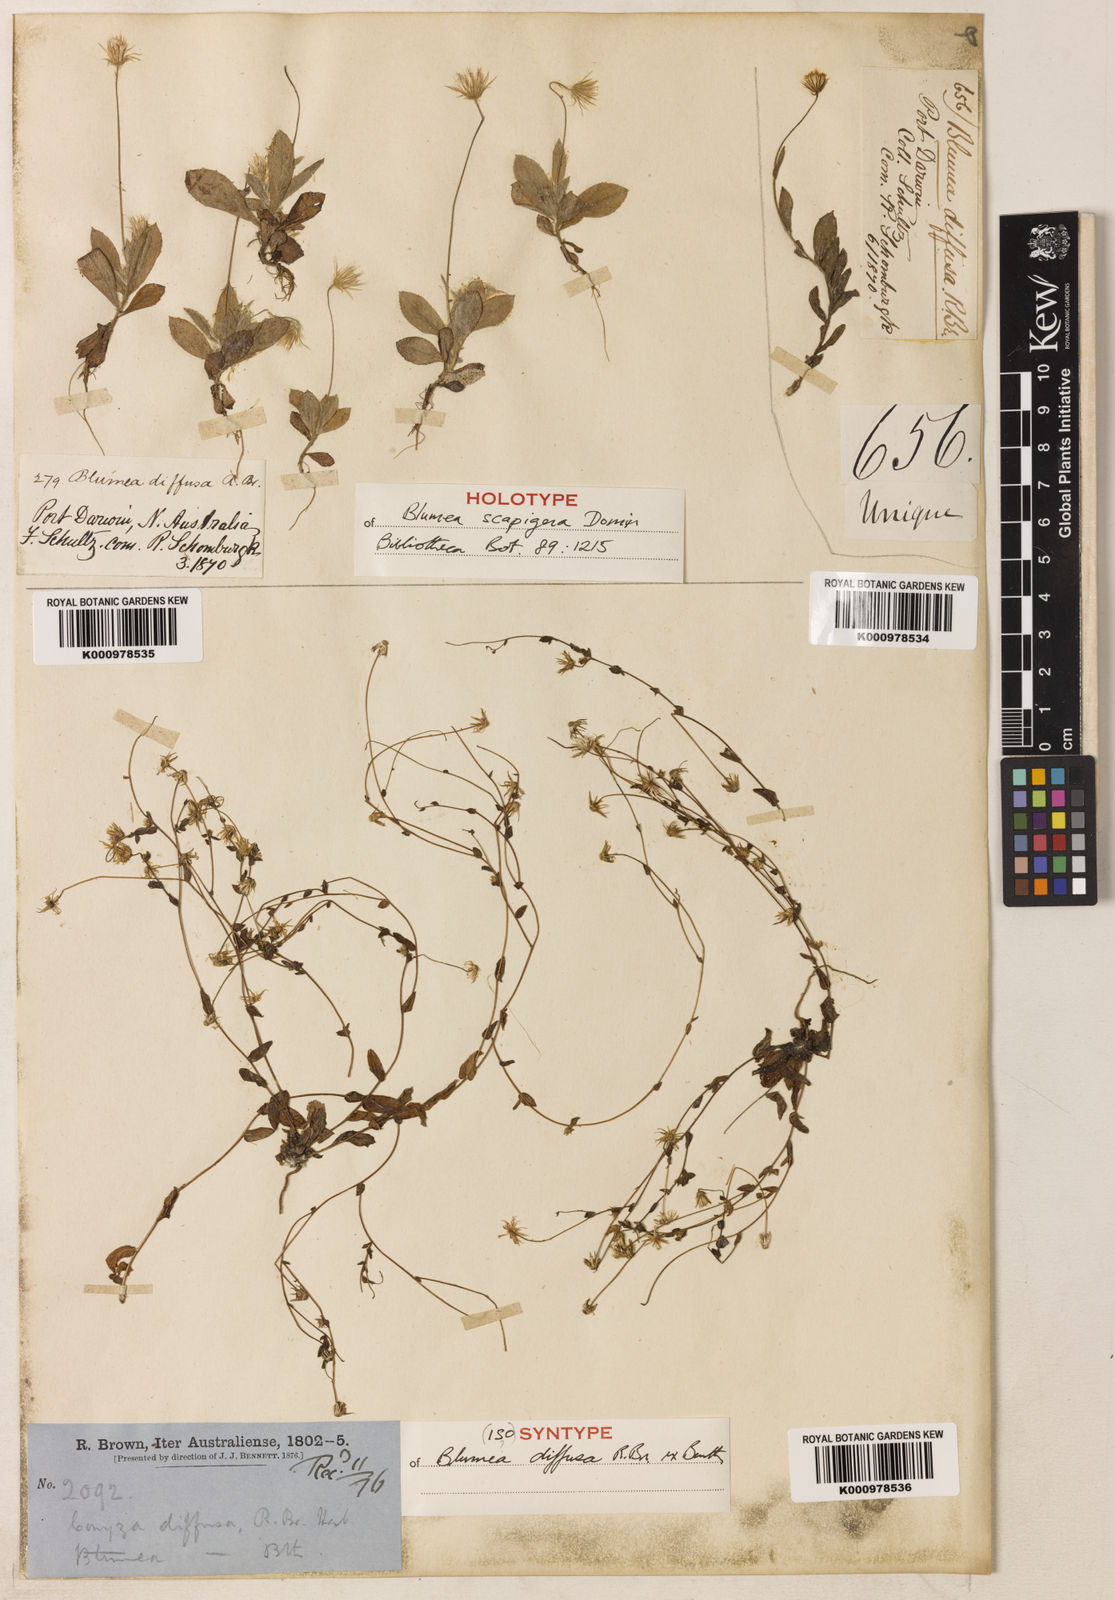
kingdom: Plantae
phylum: Tracheophyta
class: Magnoliopsida
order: Asterales
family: Asteraceae
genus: Blumea
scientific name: Blumea diffusa
